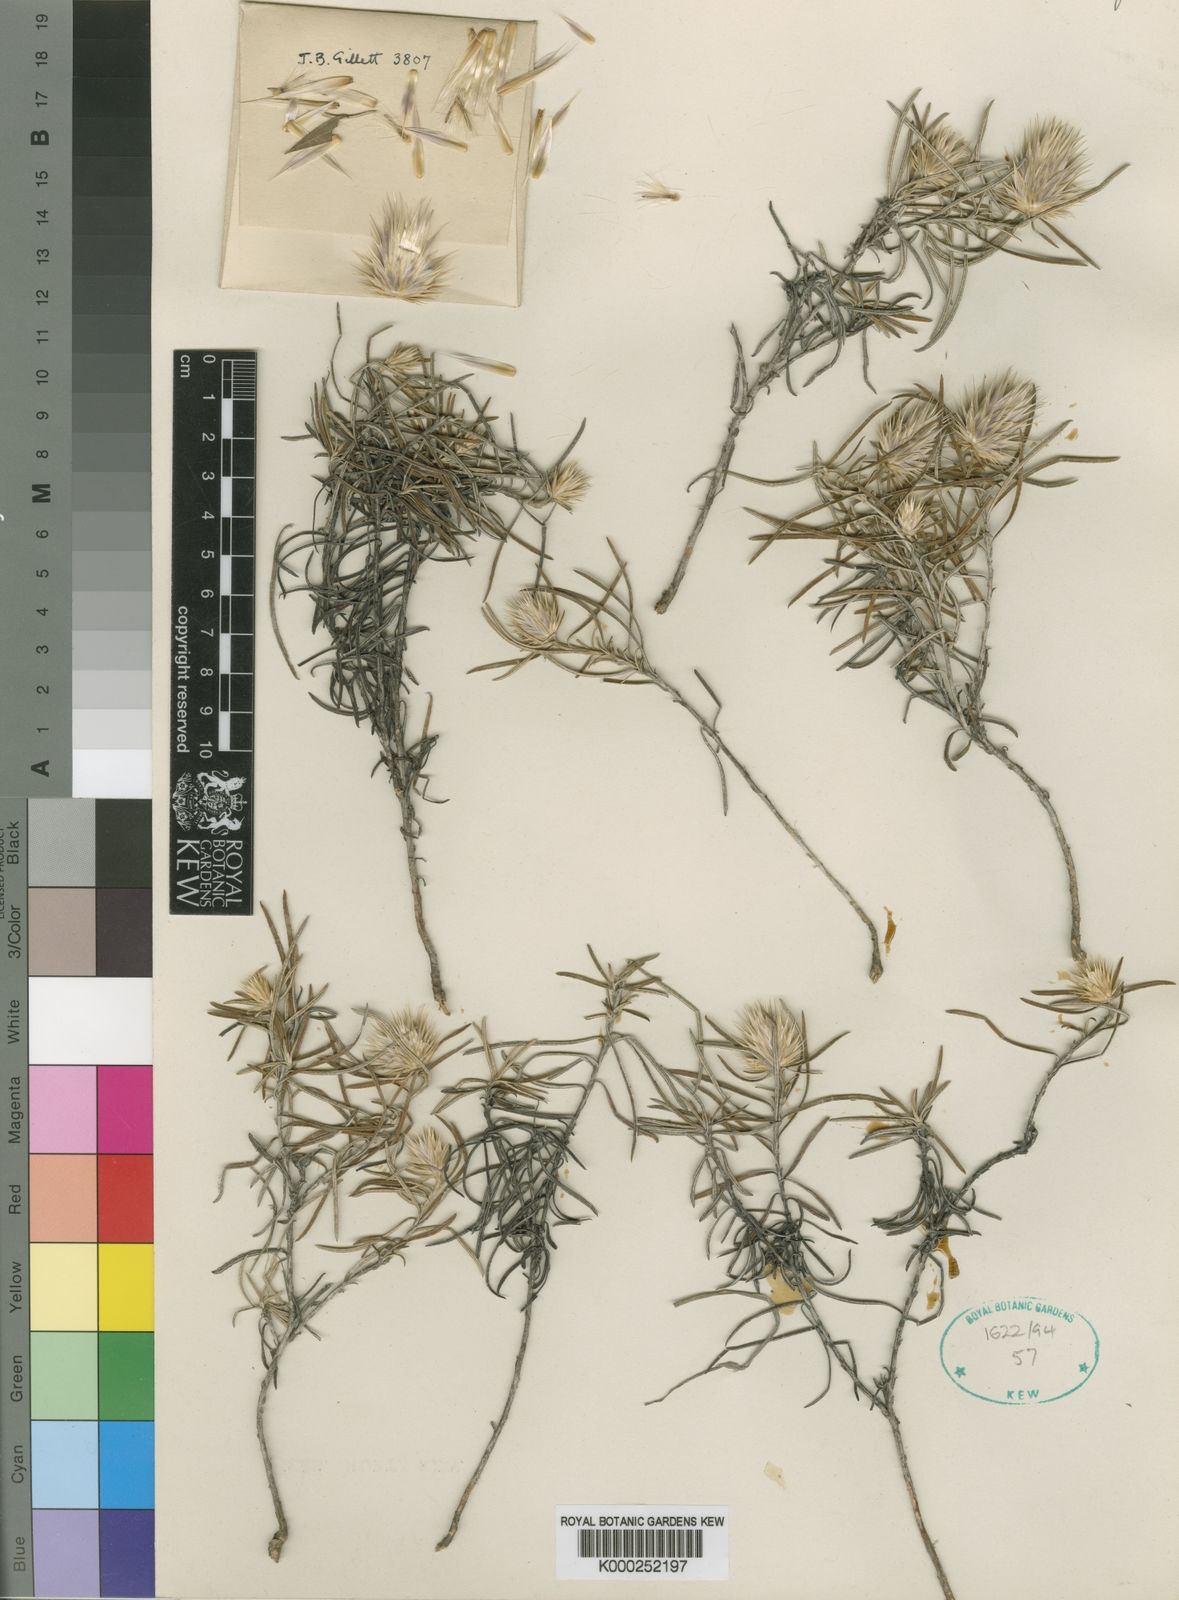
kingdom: Plantae
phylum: Tracheophyta
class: Magnoliopsida
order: Asterales
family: Asteraceae
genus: Dicoma
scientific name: Dicoma prostrata
